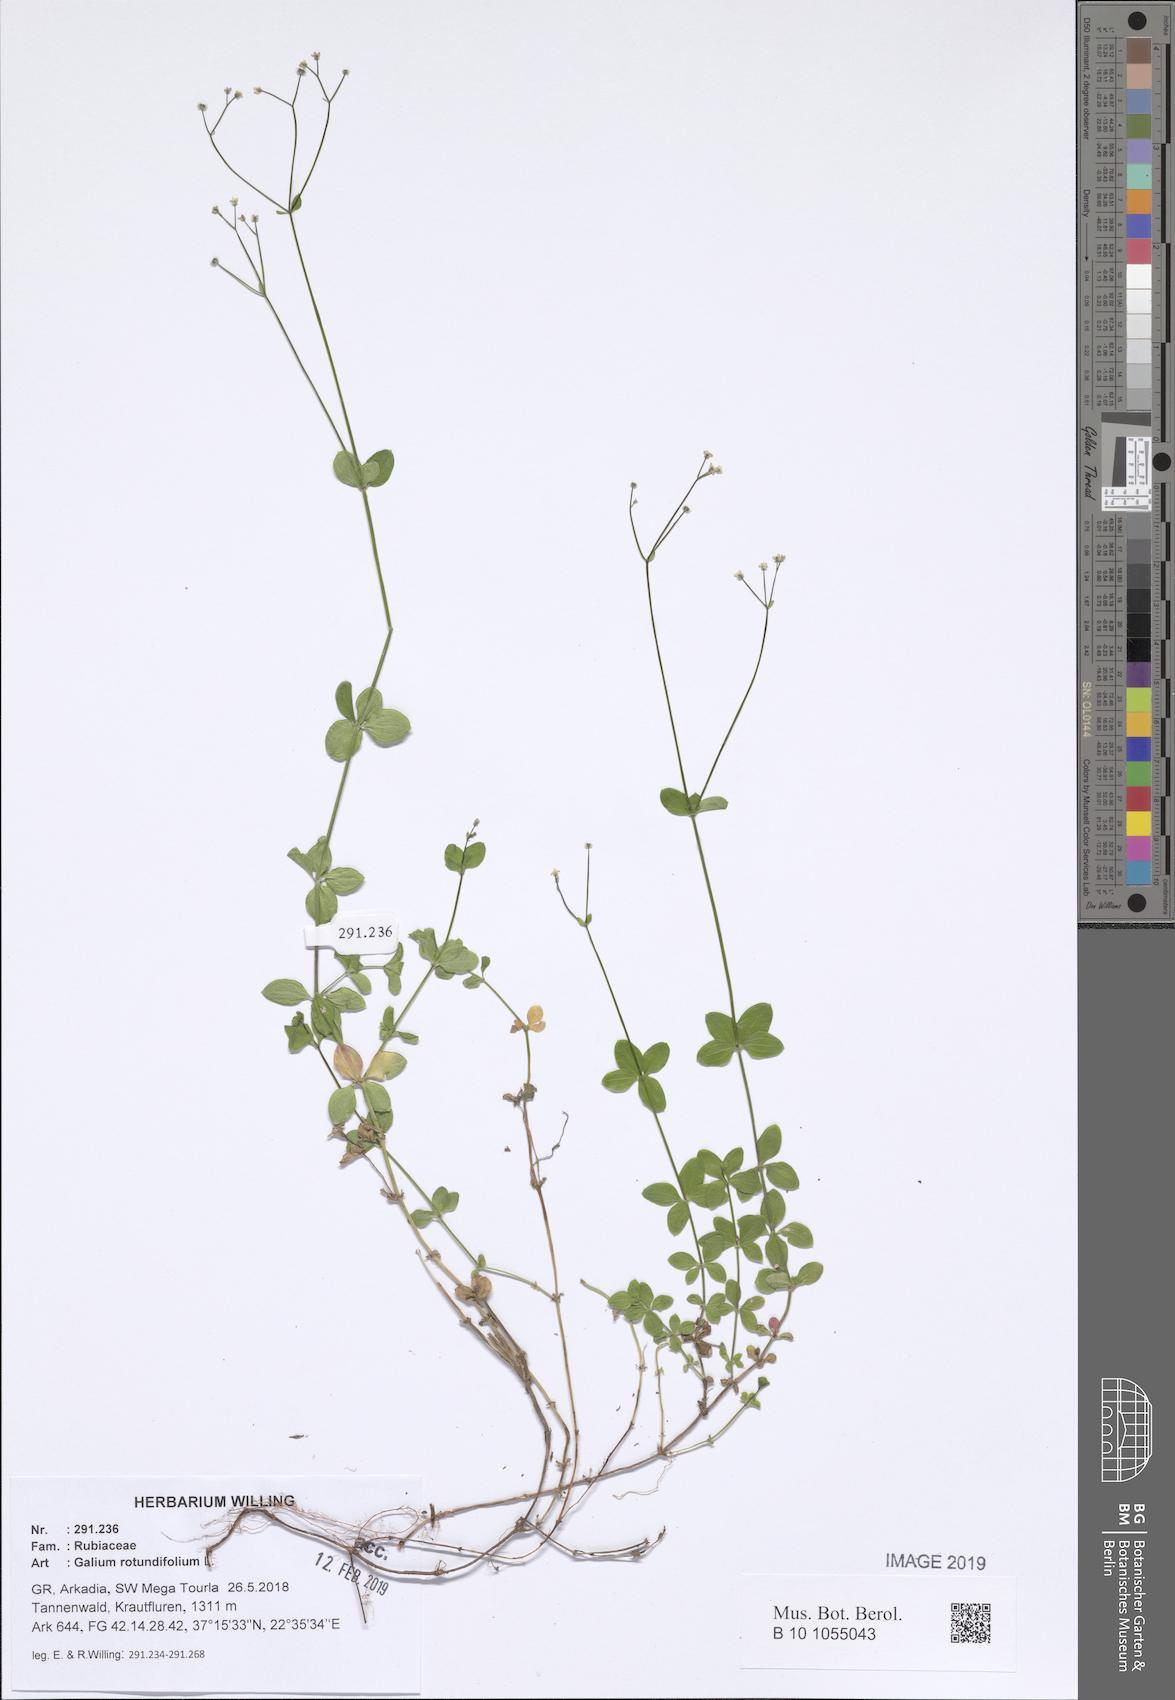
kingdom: Plantae
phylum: Tracheophyta
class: Magnoliopsida
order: Gentianales
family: Rubiaceae
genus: Galium
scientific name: Galium rotundifolium
